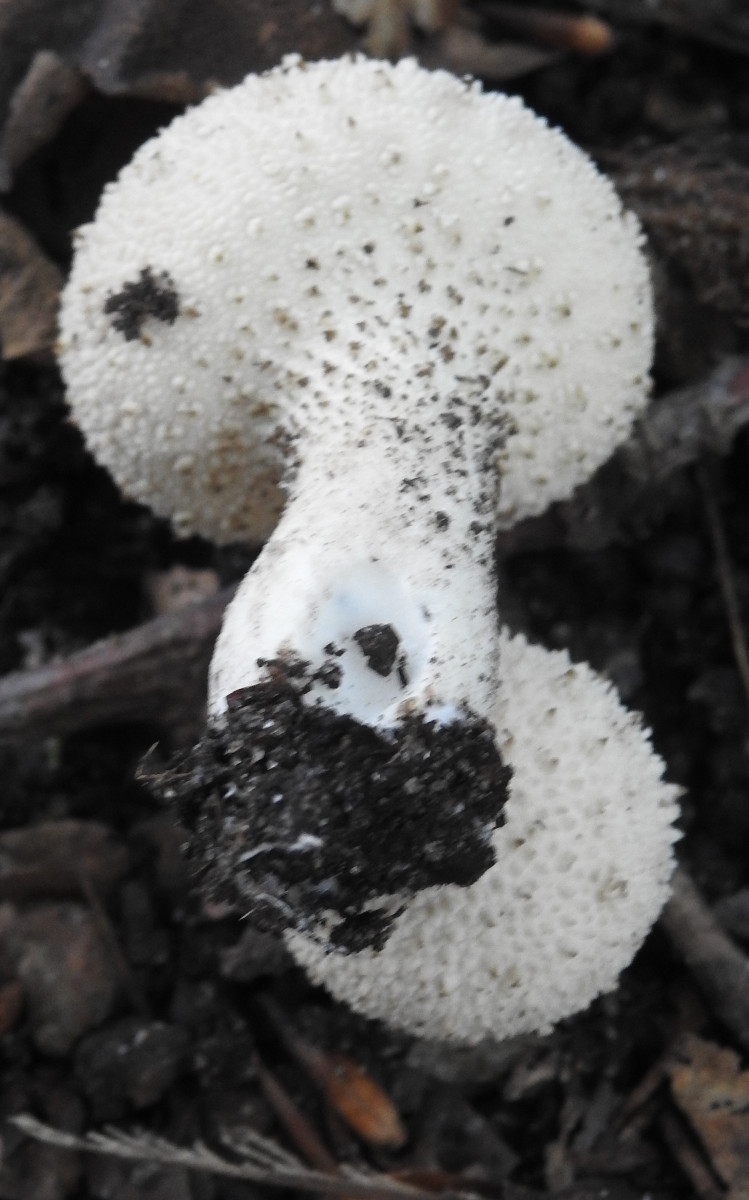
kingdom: Fungi
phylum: Basidiomycota
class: Agaricomycetes
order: Agaricales
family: Lycoperdaceae
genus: Lycoperdon
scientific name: Lycoperdon perlatum
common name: krystal-støvbold
